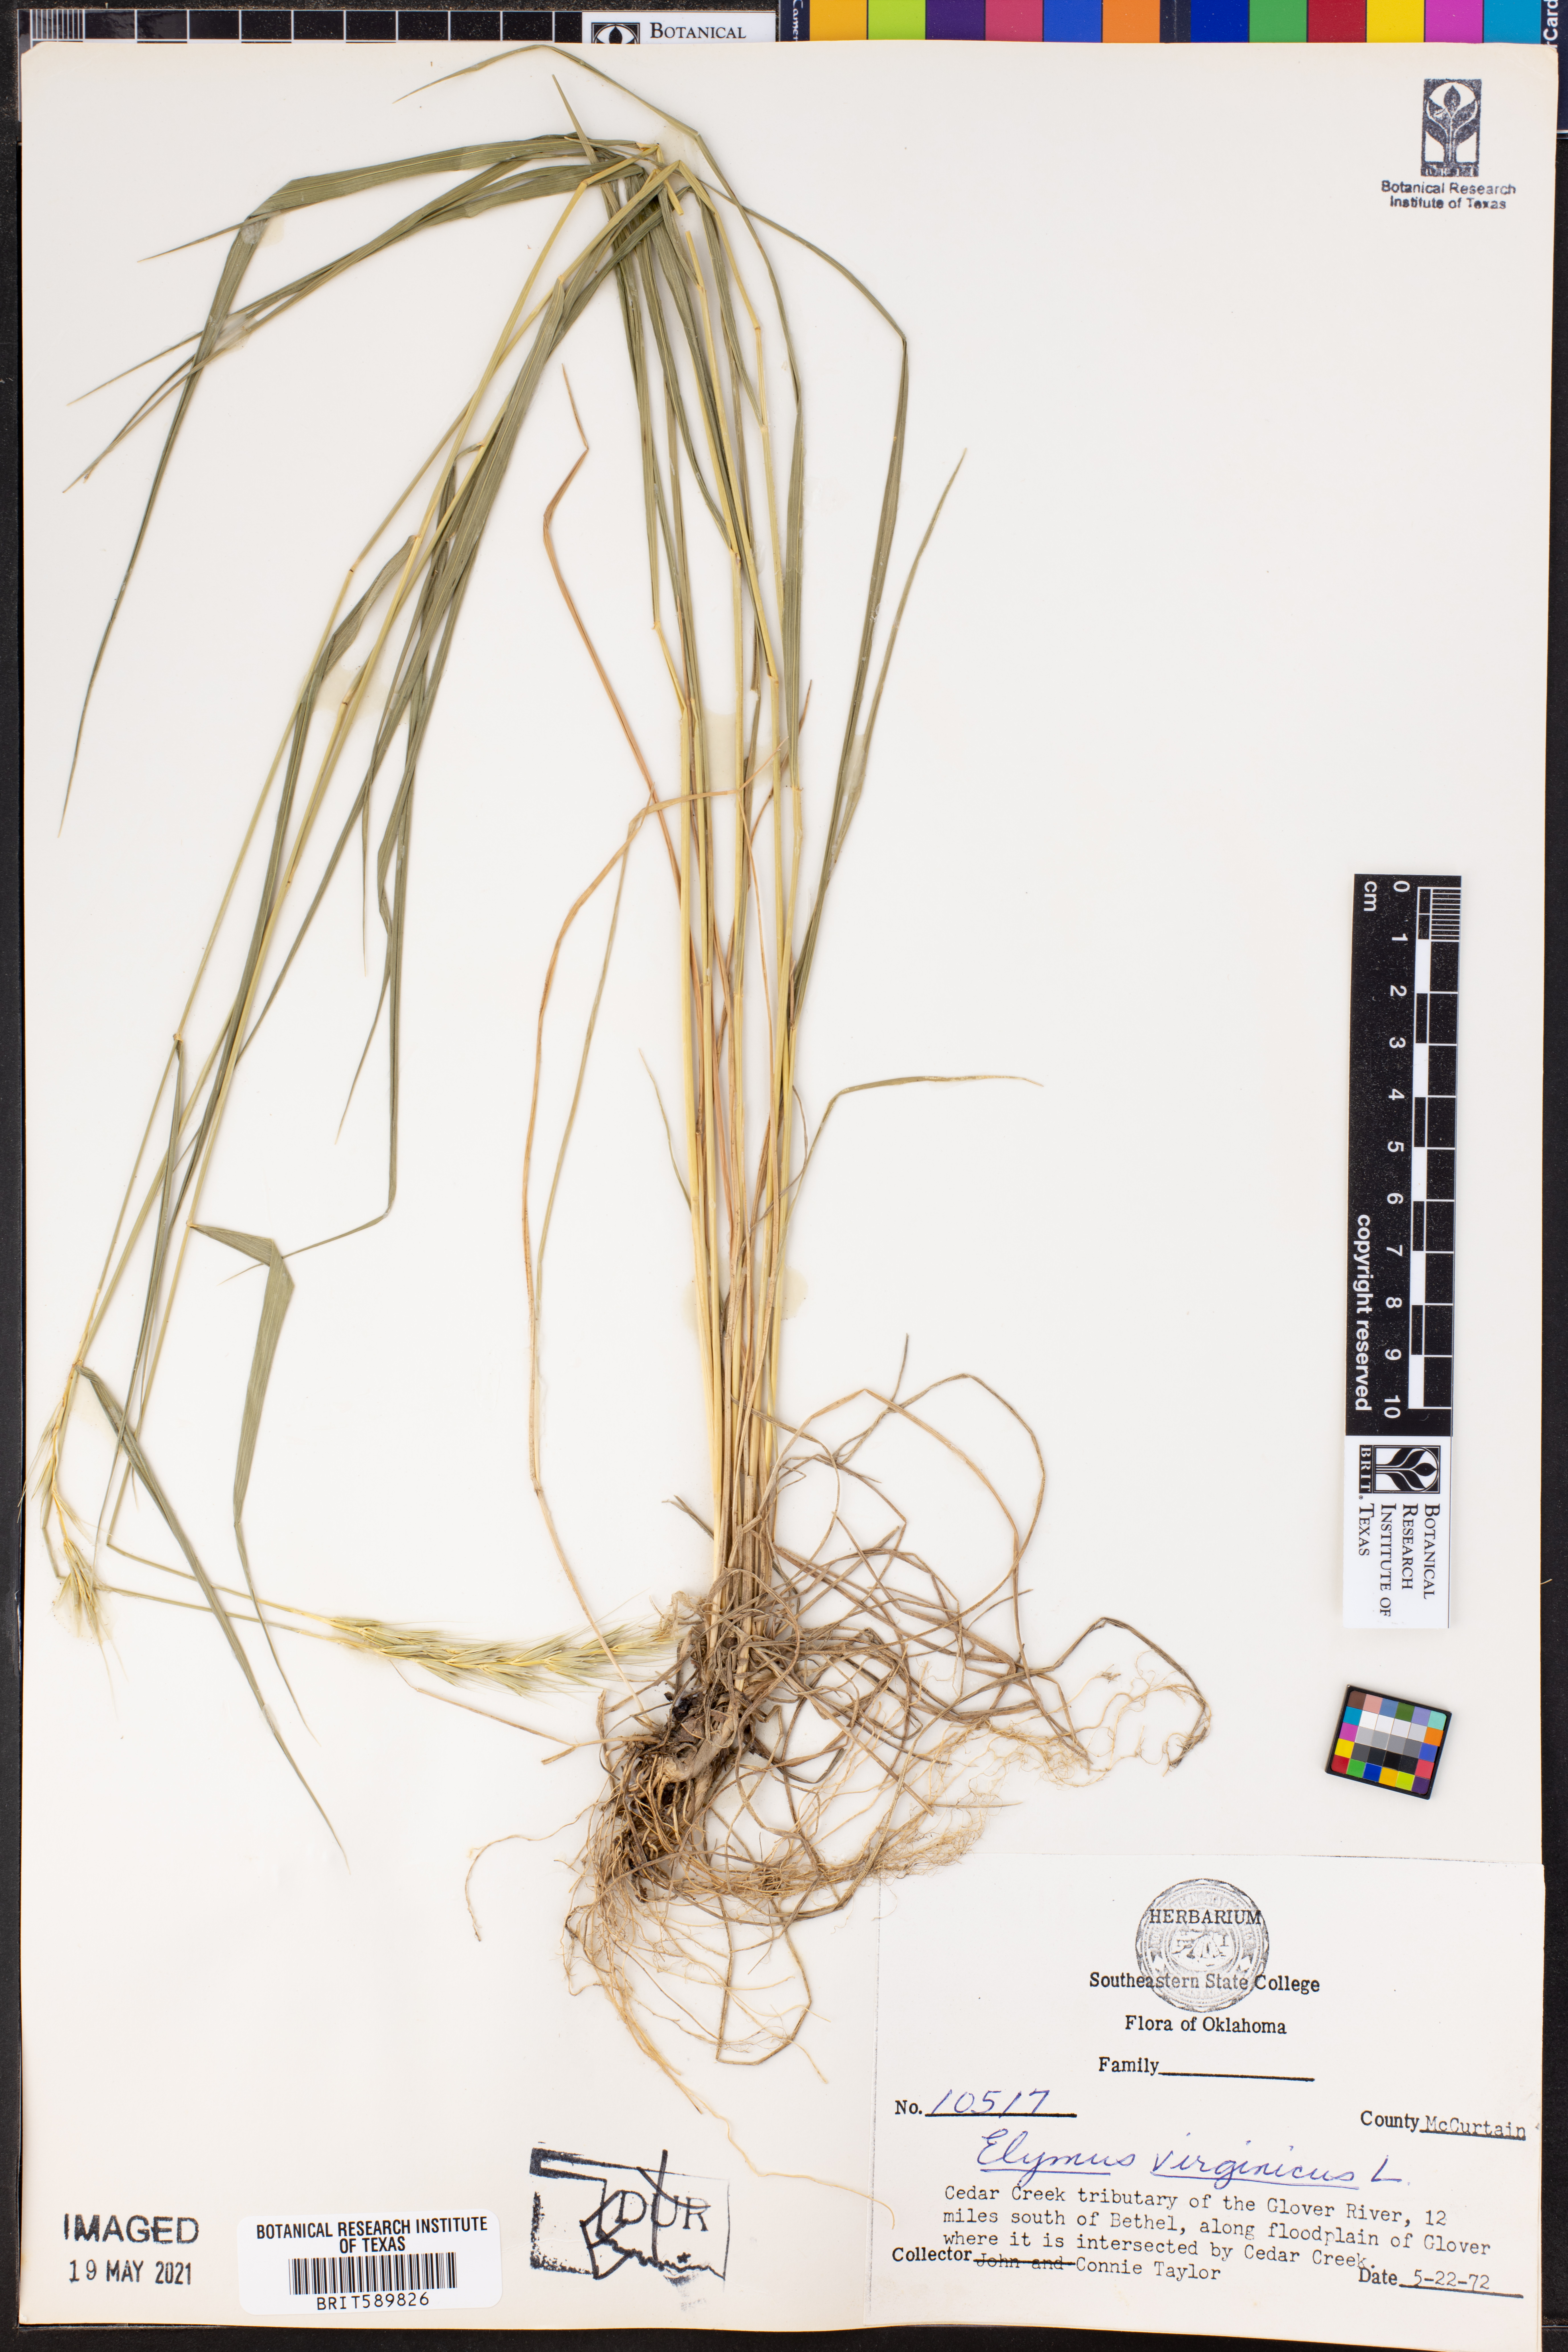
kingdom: Plantae
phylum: Tracheophyta
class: Liliopsida
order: Poales
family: Poaceae
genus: Elymus
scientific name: Elymus virginicus
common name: Common eastern wildrye
